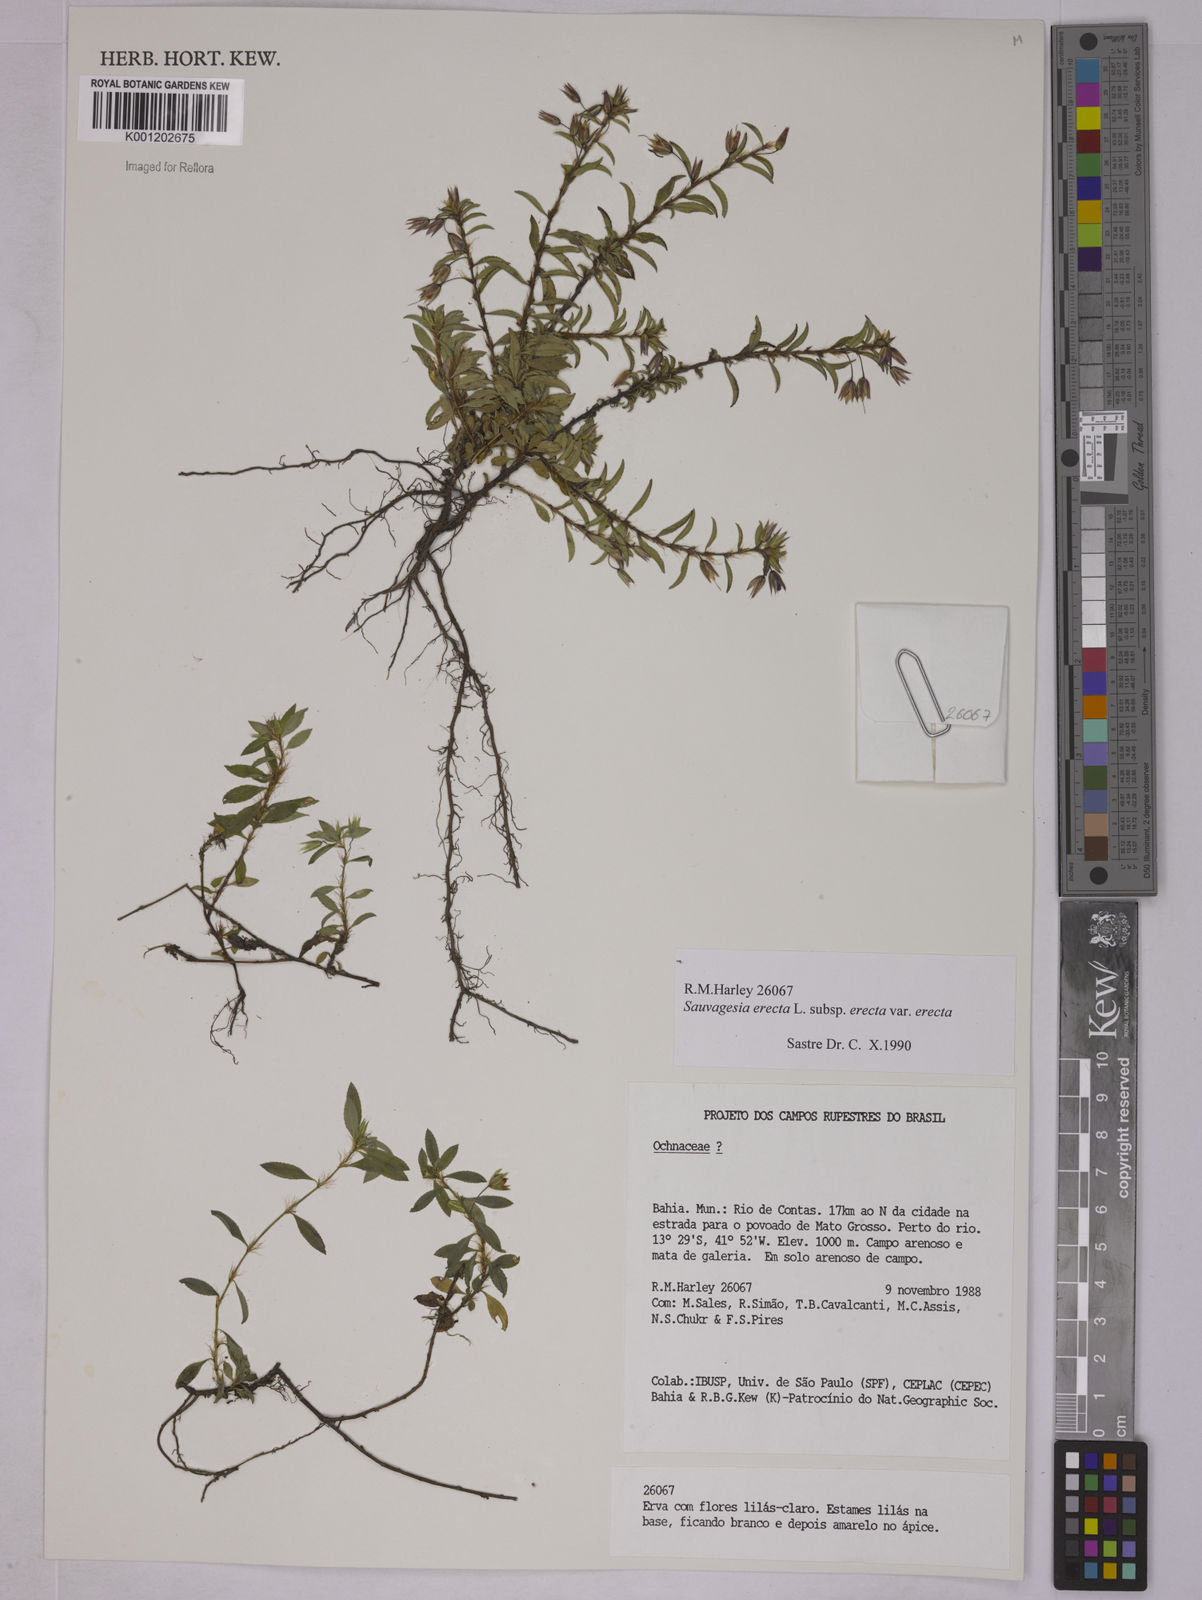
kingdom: Plantae
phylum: Tracheophyta
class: Magnoliopsida
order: Malpighiales
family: Ochnaceae
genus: Sauvagesia
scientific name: Sauvagesia erecta
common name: Creole tea
